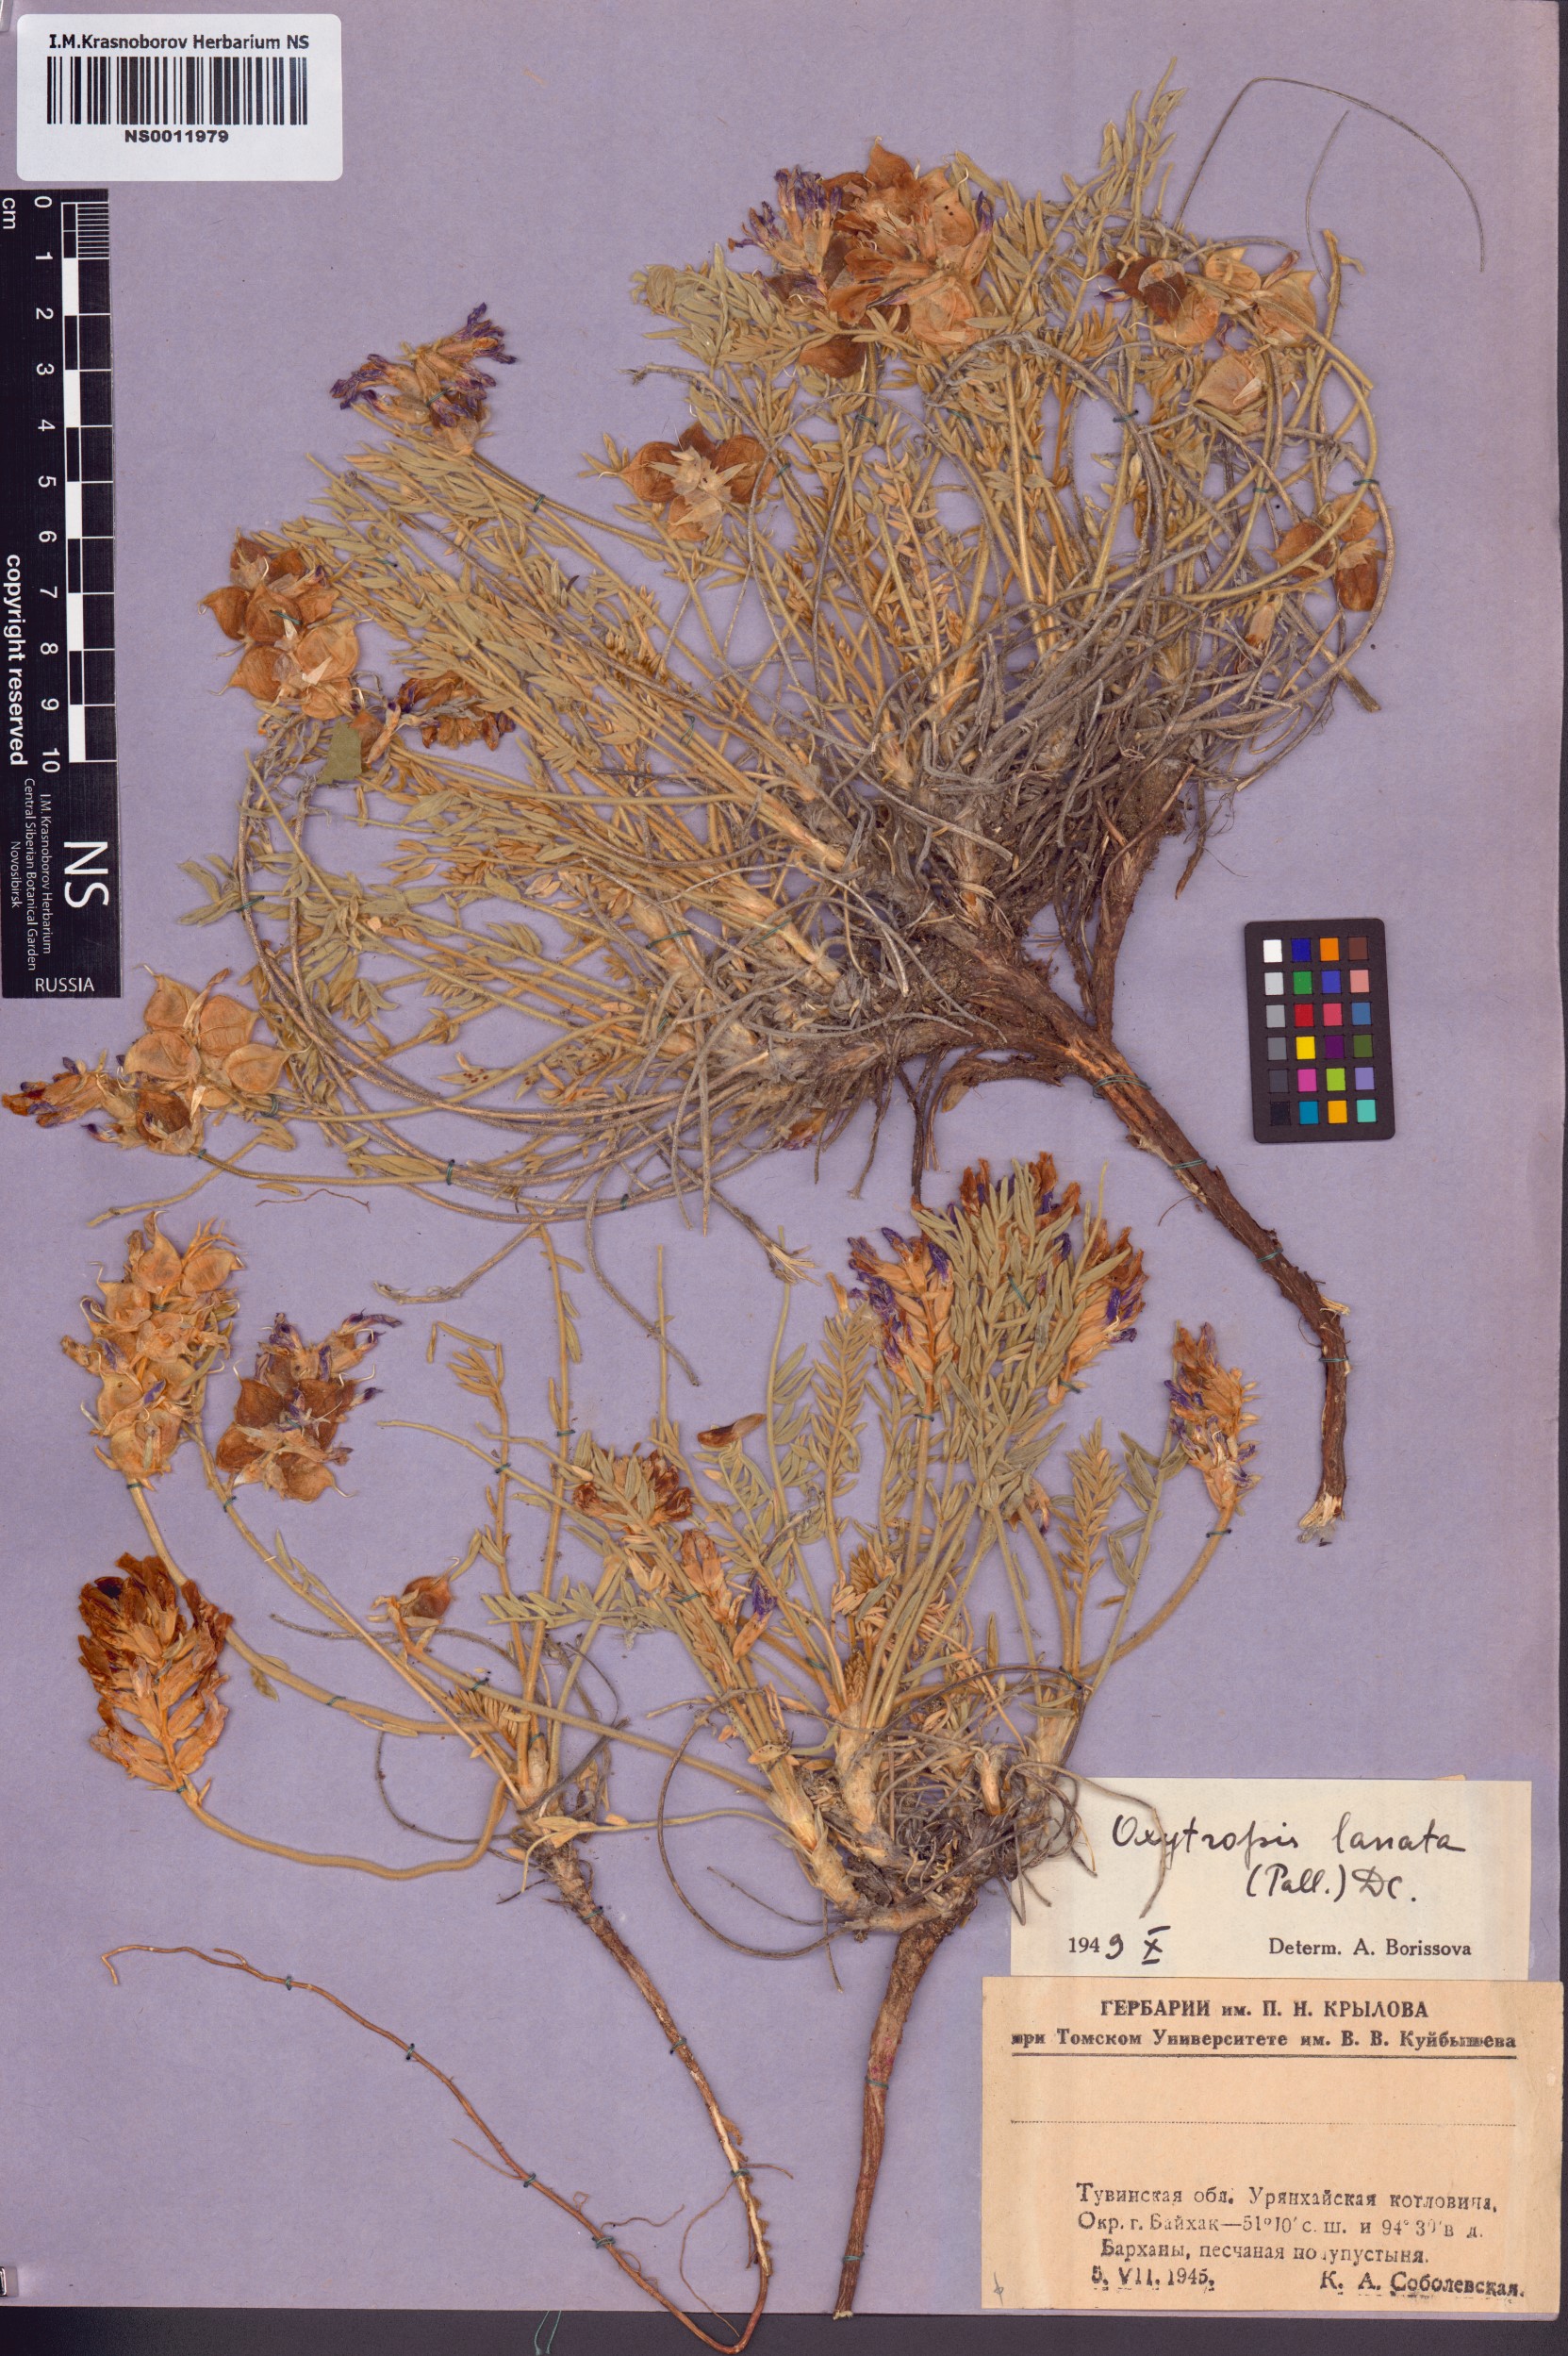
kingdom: Plantae
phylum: Tracheophyta
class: Magnoliopsida
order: Fabales
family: Fabaceae
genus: Oxytropis
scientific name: Oxytropis lanata
